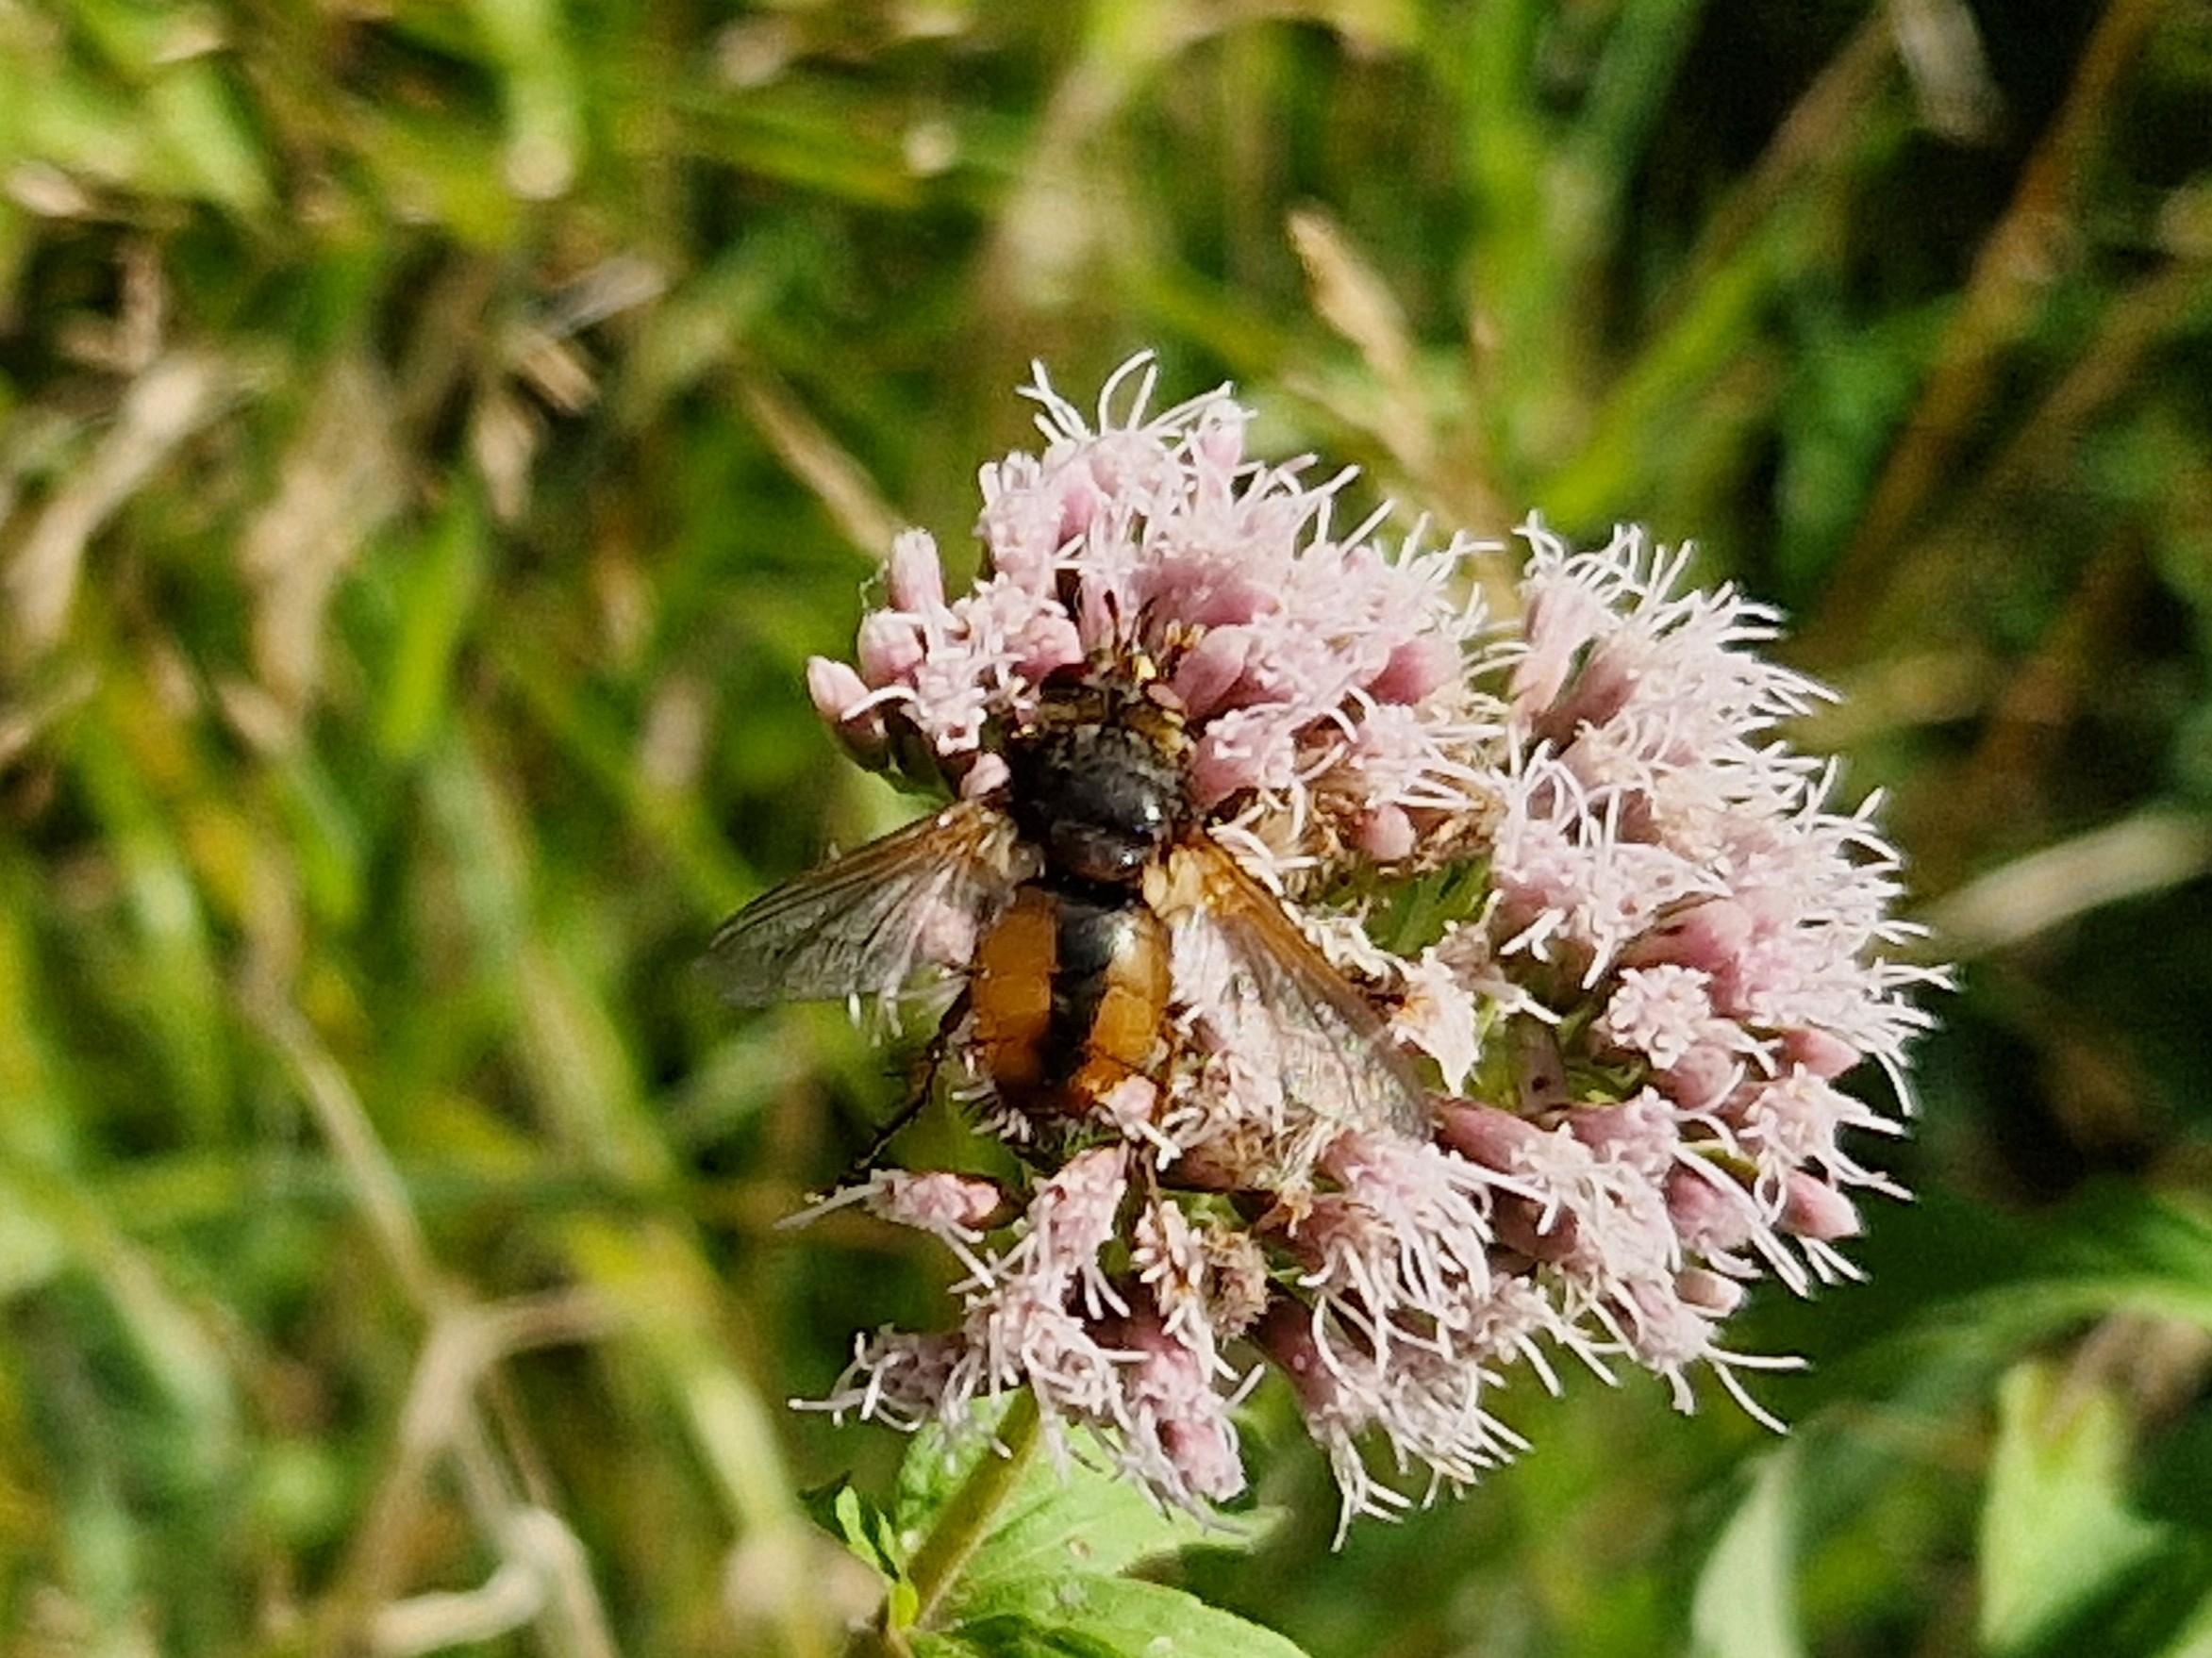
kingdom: Animalia
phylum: Arthropoda
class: Insecta
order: Diptera
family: Tachinidae
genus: Tachina
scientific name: Tachina fera
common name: Mellemfluen oskar
